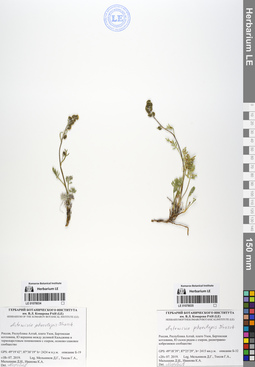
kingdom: Plantae
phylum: Tracheophyta
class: Magnoliopsida
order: Asterales
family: Asteraceae
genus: Artemisia
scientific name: Artemisia phaeolepis
